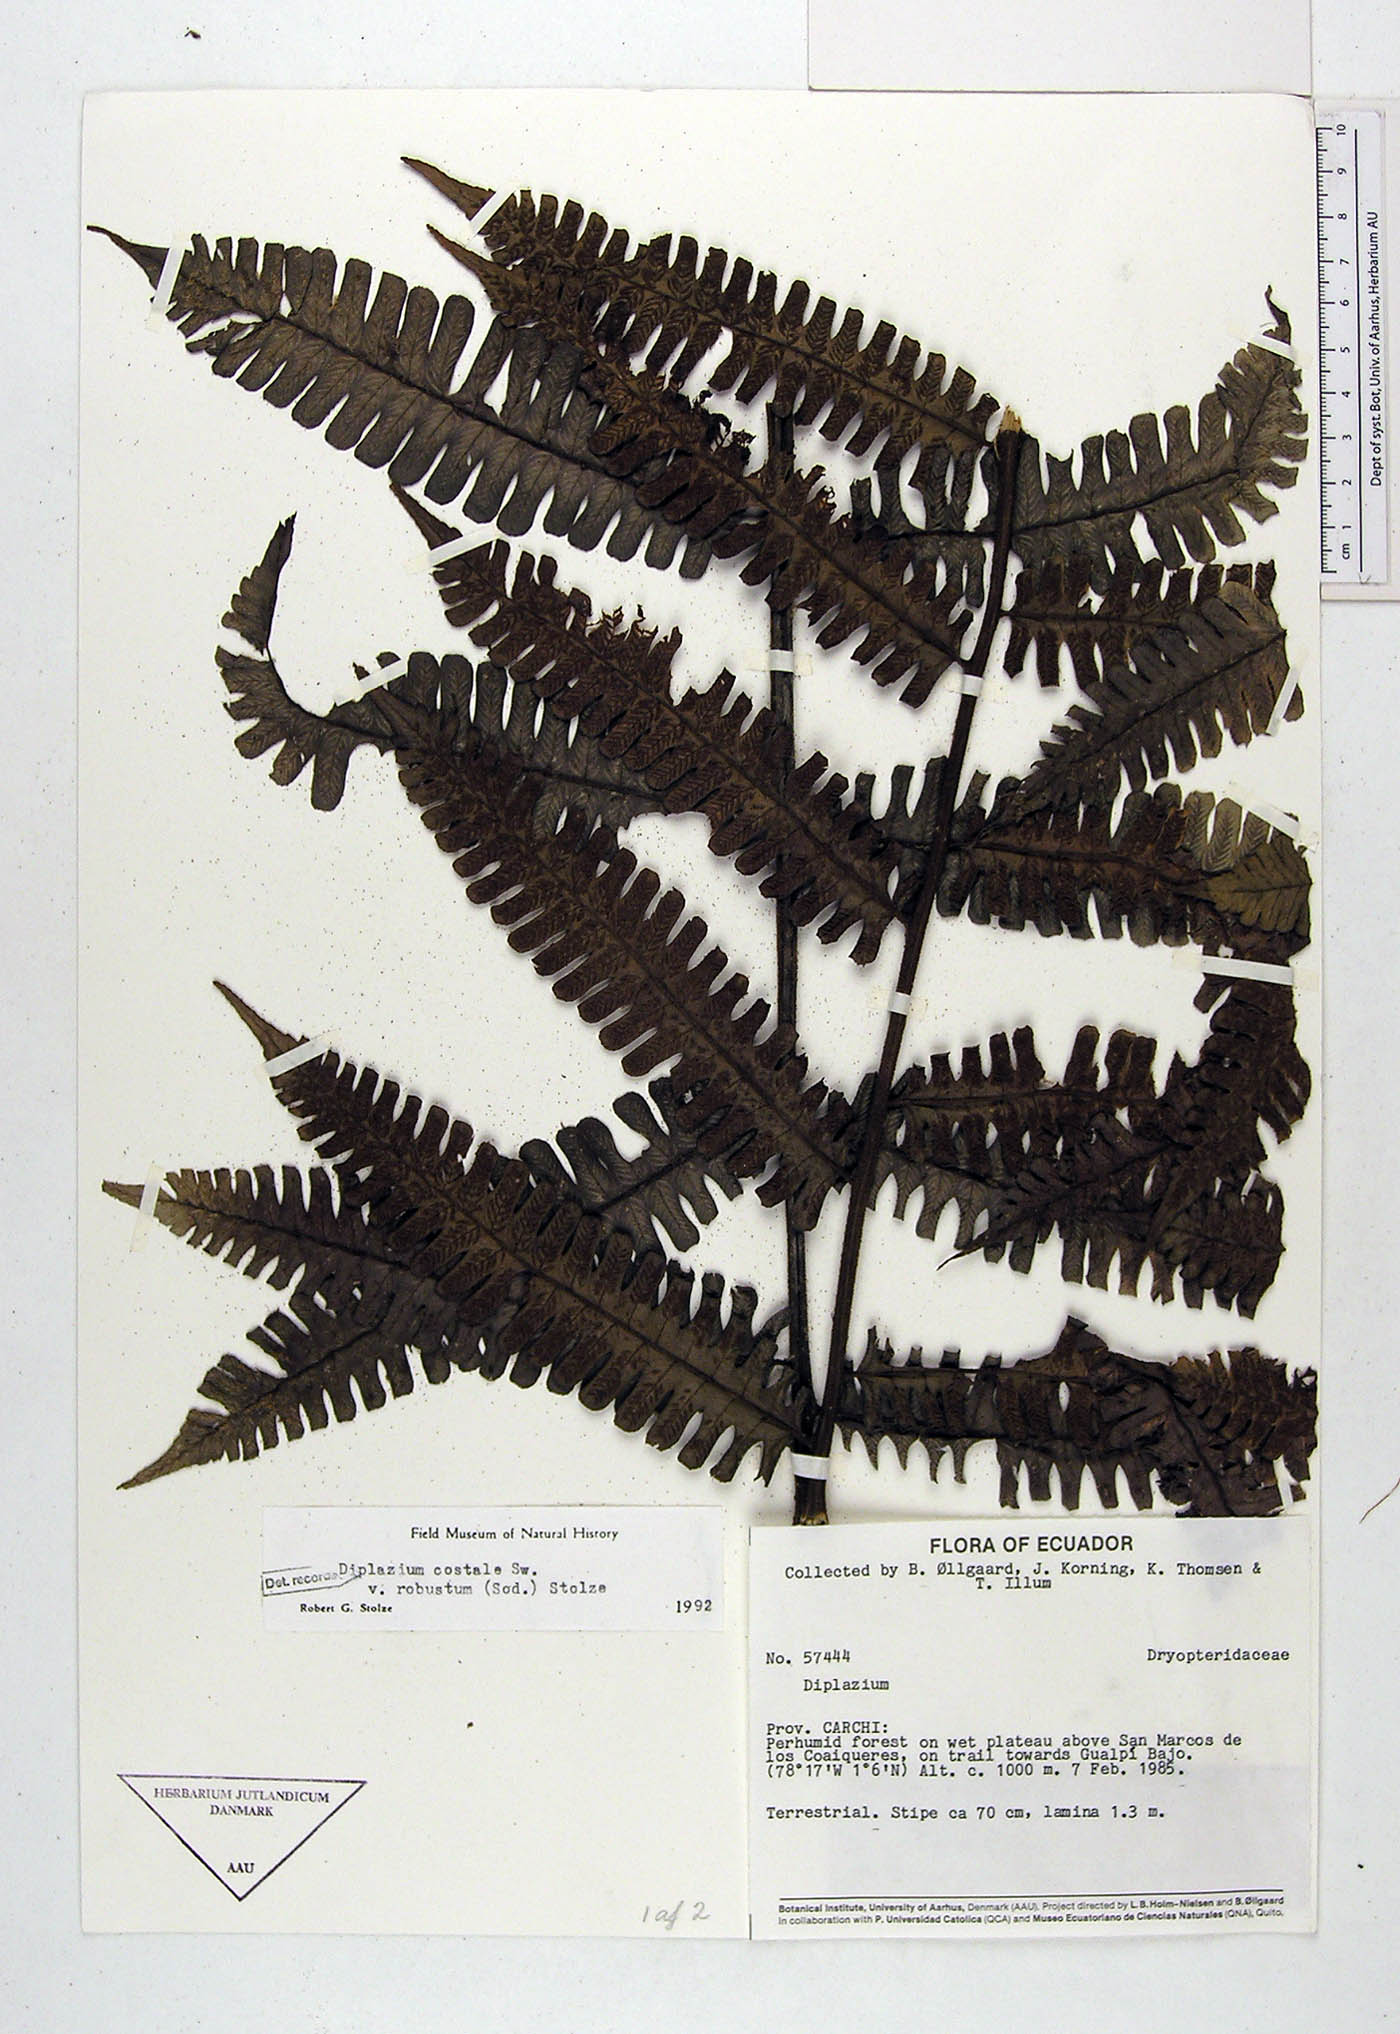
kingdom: Plantae
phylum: Tracheophyta
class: Polypodiopsida
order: Polypodiales
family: Athyriaceae
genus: Diplazium
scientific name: Diplazium costale
